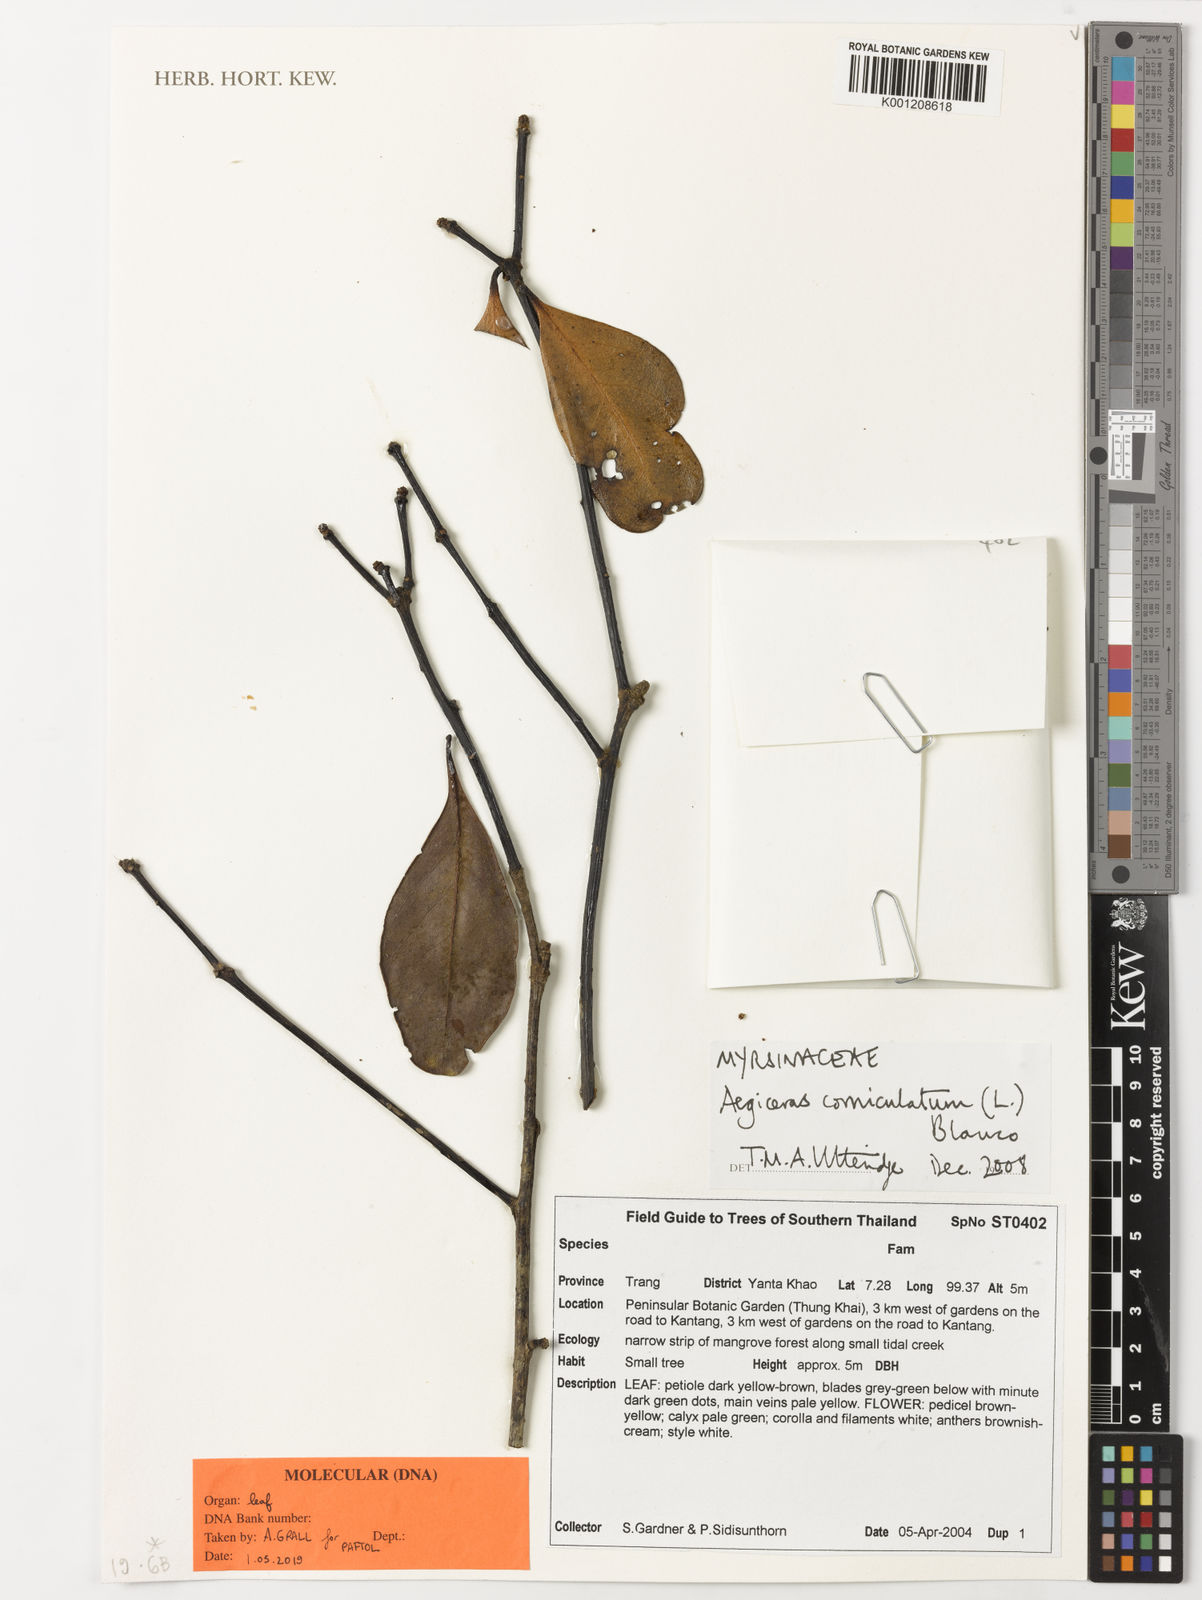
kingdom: Plantae
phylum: Tracheophyta
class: Magnoliopsida
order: Ericales
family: Primulaceae
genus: Aegiceras
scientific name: Aegiceras
